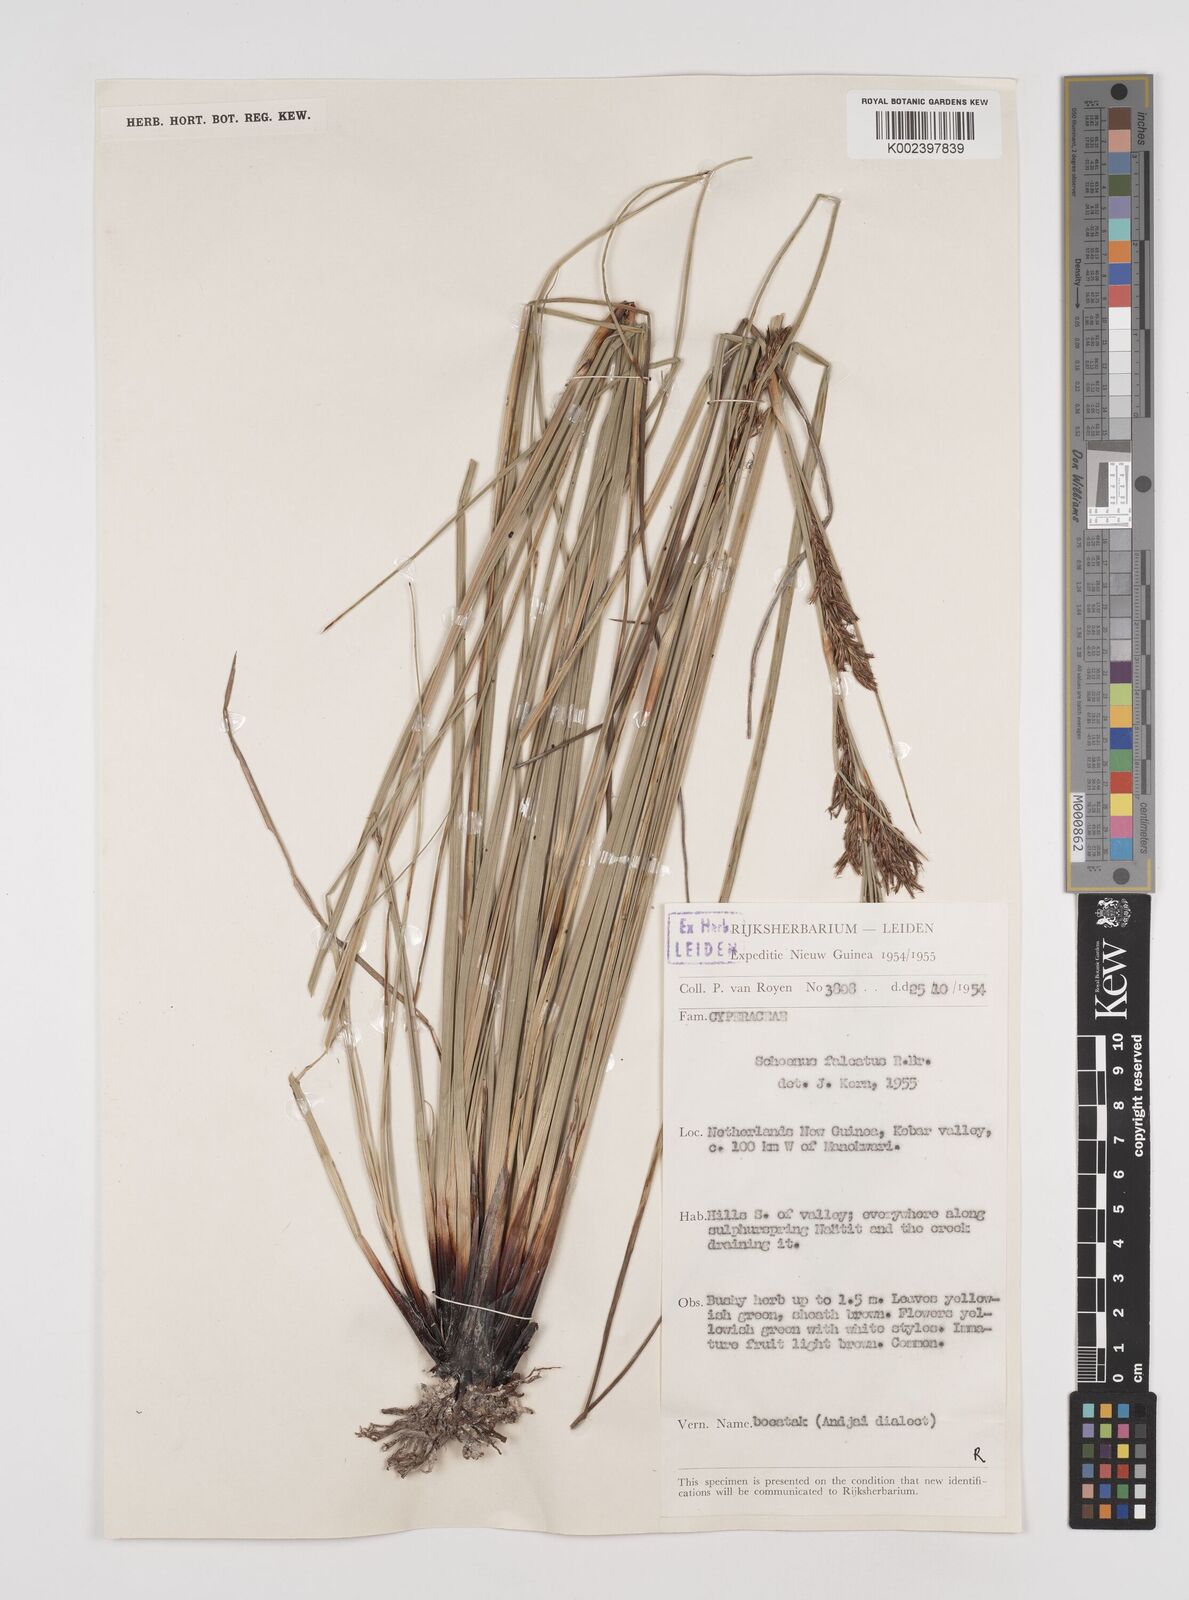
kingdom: Plantae
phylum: Tracheophyta
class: Liliopsida
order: Poales
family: Cyperaceae
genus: Schoenus
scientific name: Schoenus falcatus
